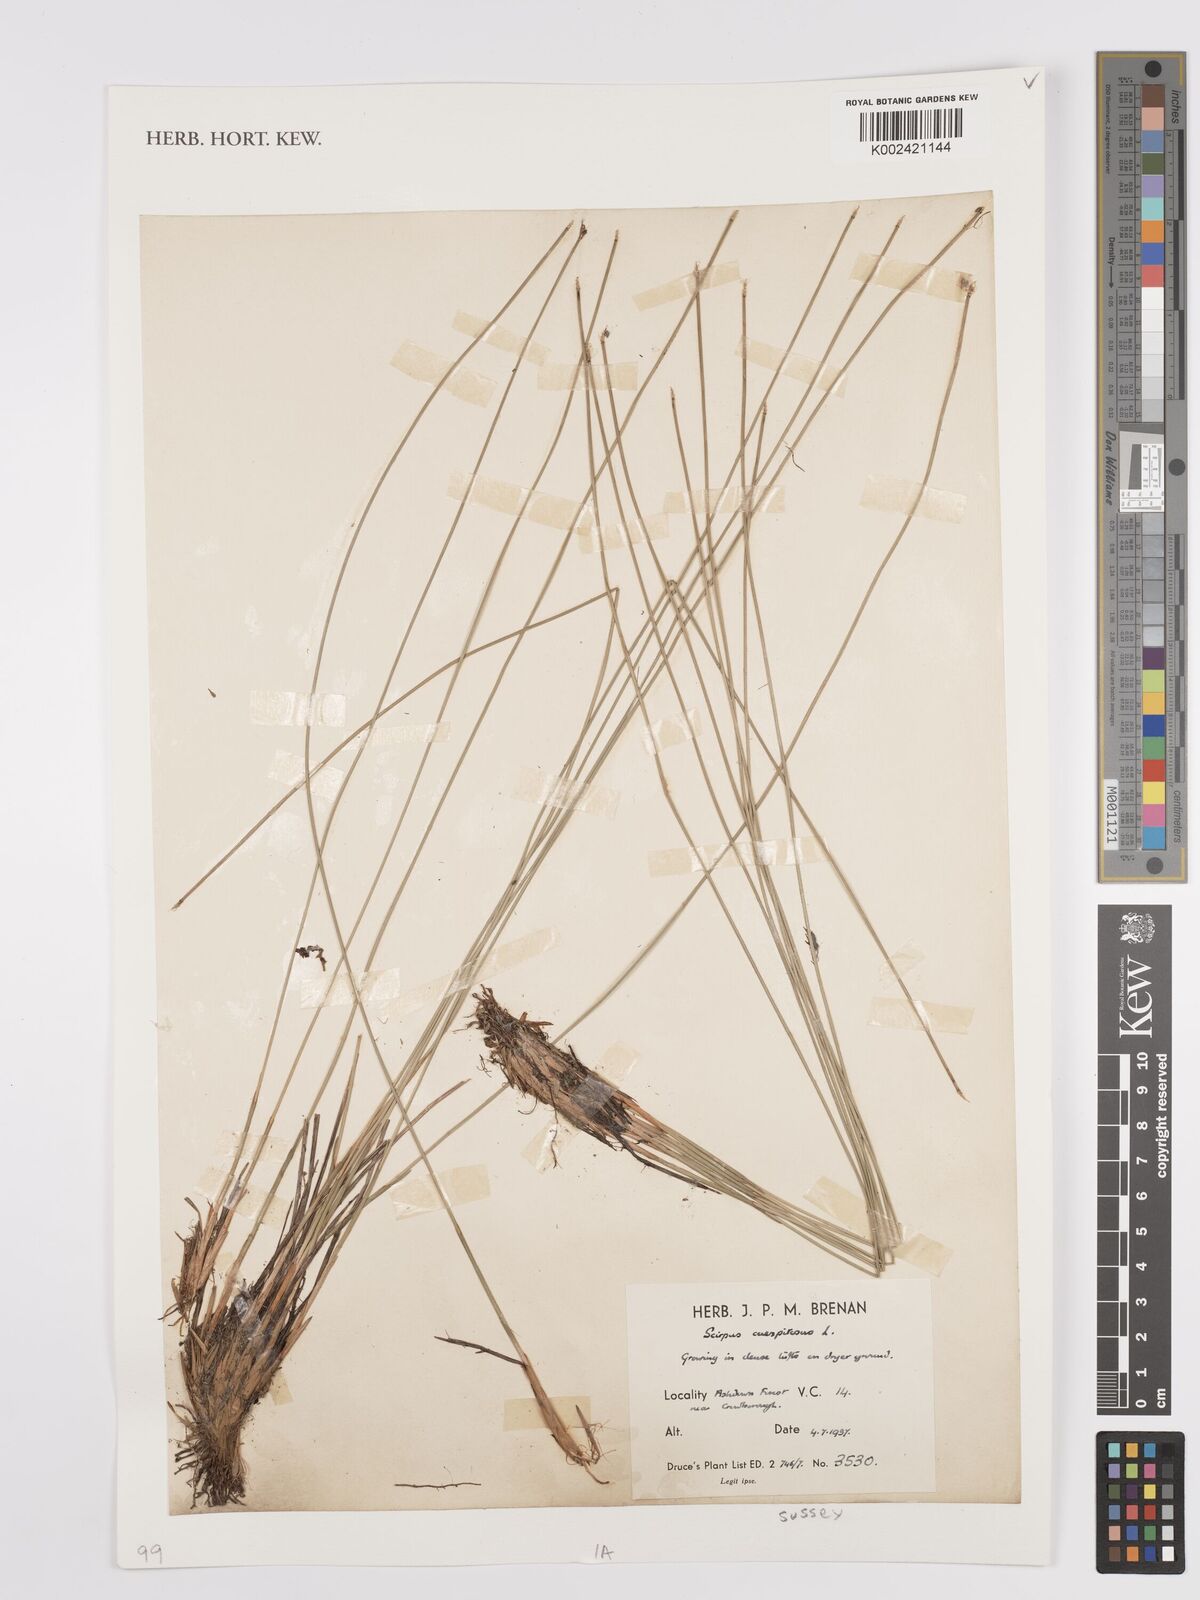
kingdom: Plantae
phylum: Tracheophyta
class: Liliopsida
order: Poales
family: Cyperaceae
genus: Eleocharis
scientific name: Eleocharis palustris
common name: Common spike-rush
